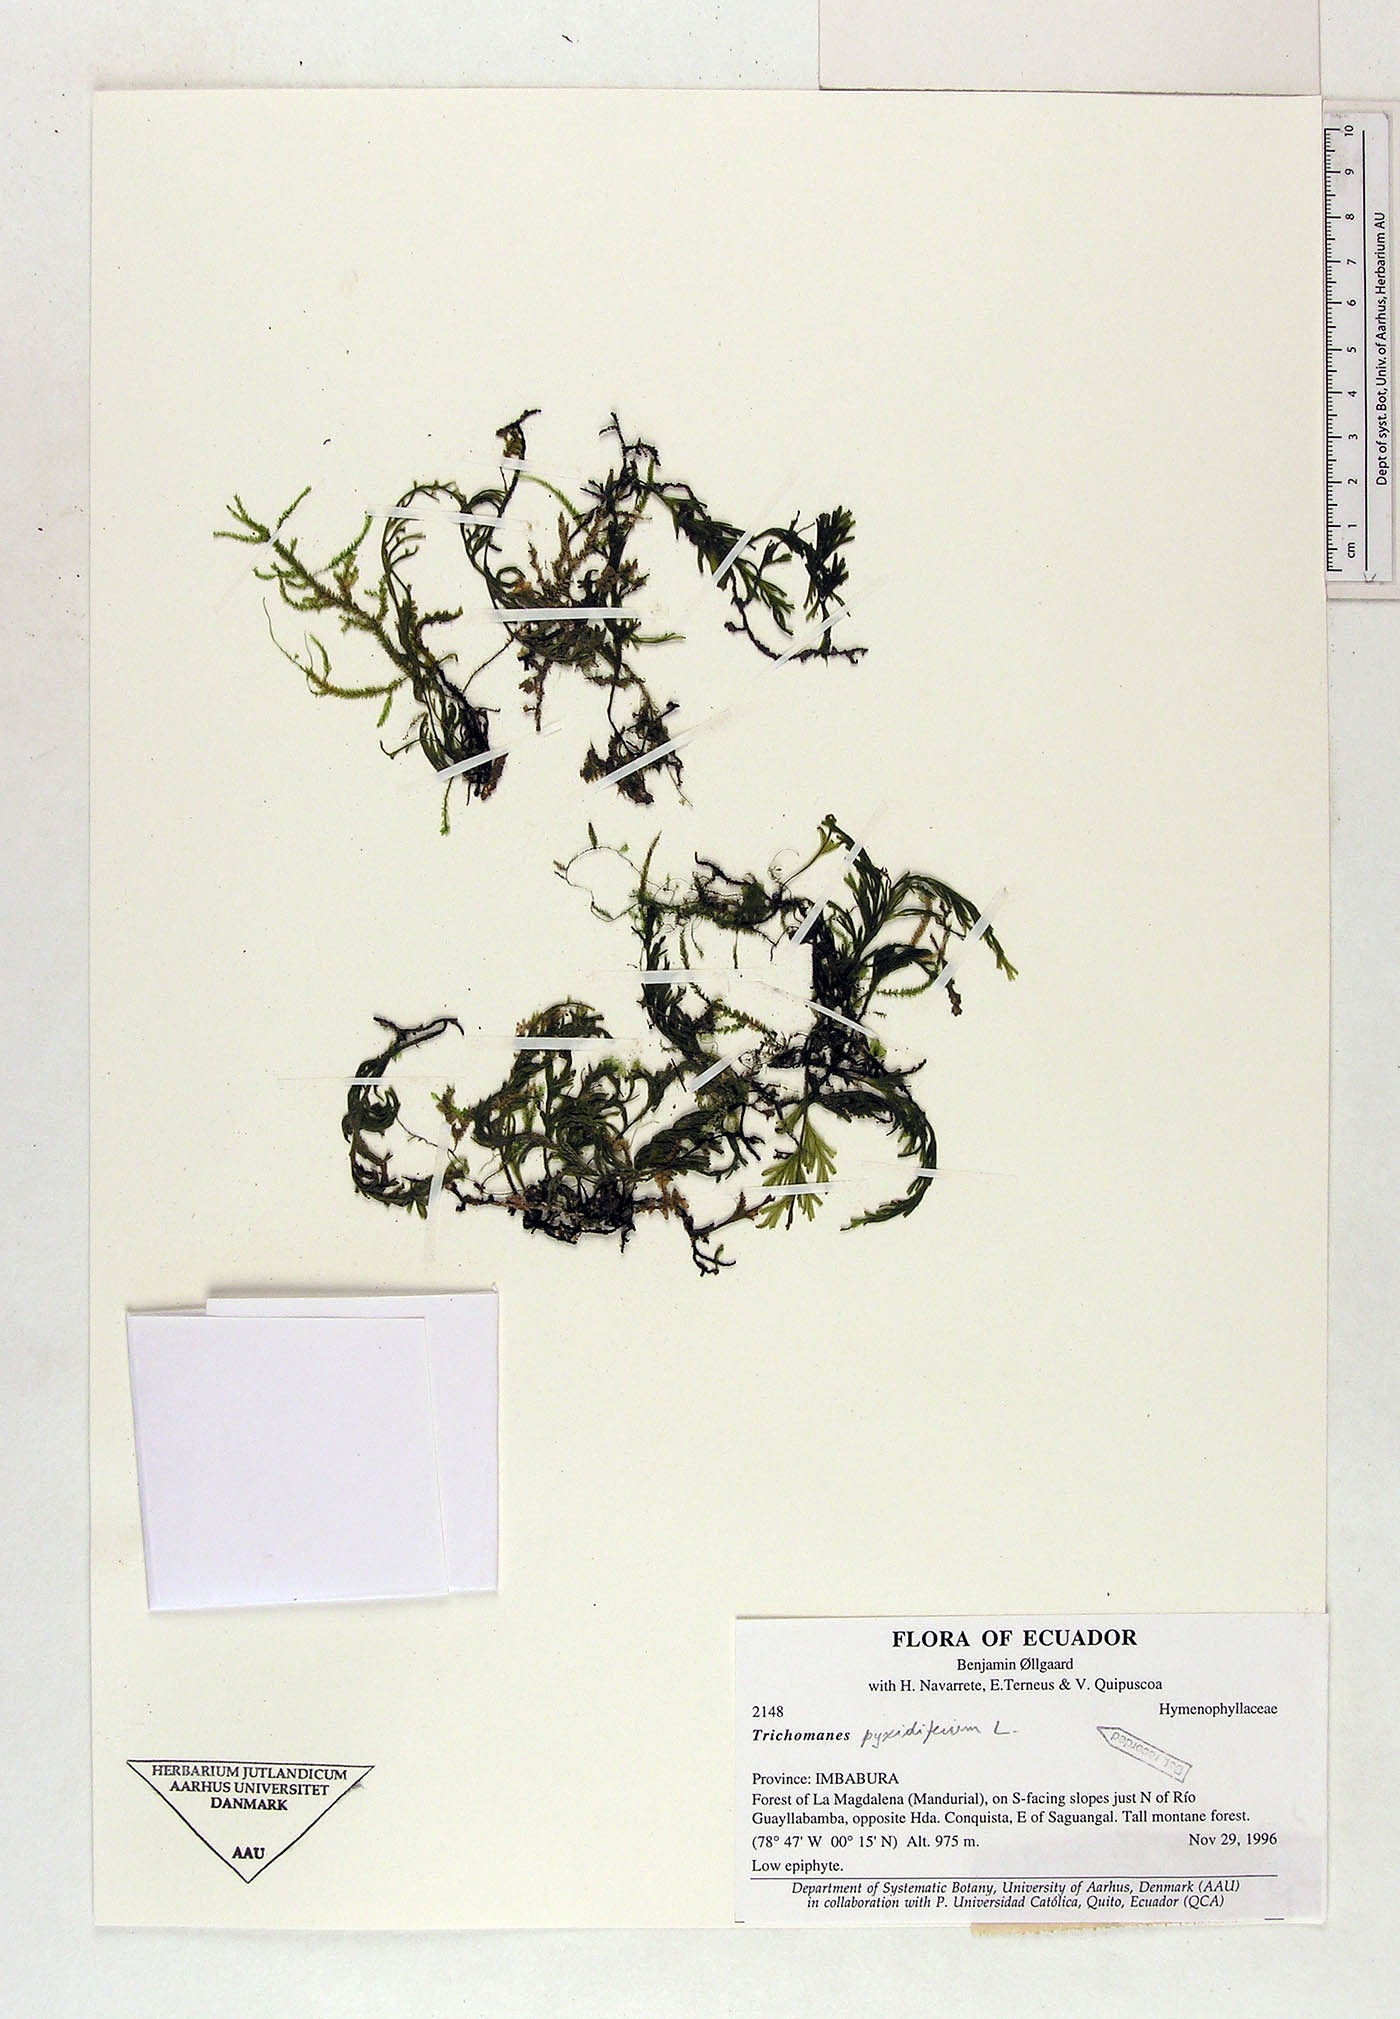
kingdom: Plantae
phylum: Tracheophyta
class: Polypodiopsida
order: Hymenophyllales
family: Hymenophyllaceae
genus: Polyphlebium
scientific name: Polyphlebium pyxidiferum
